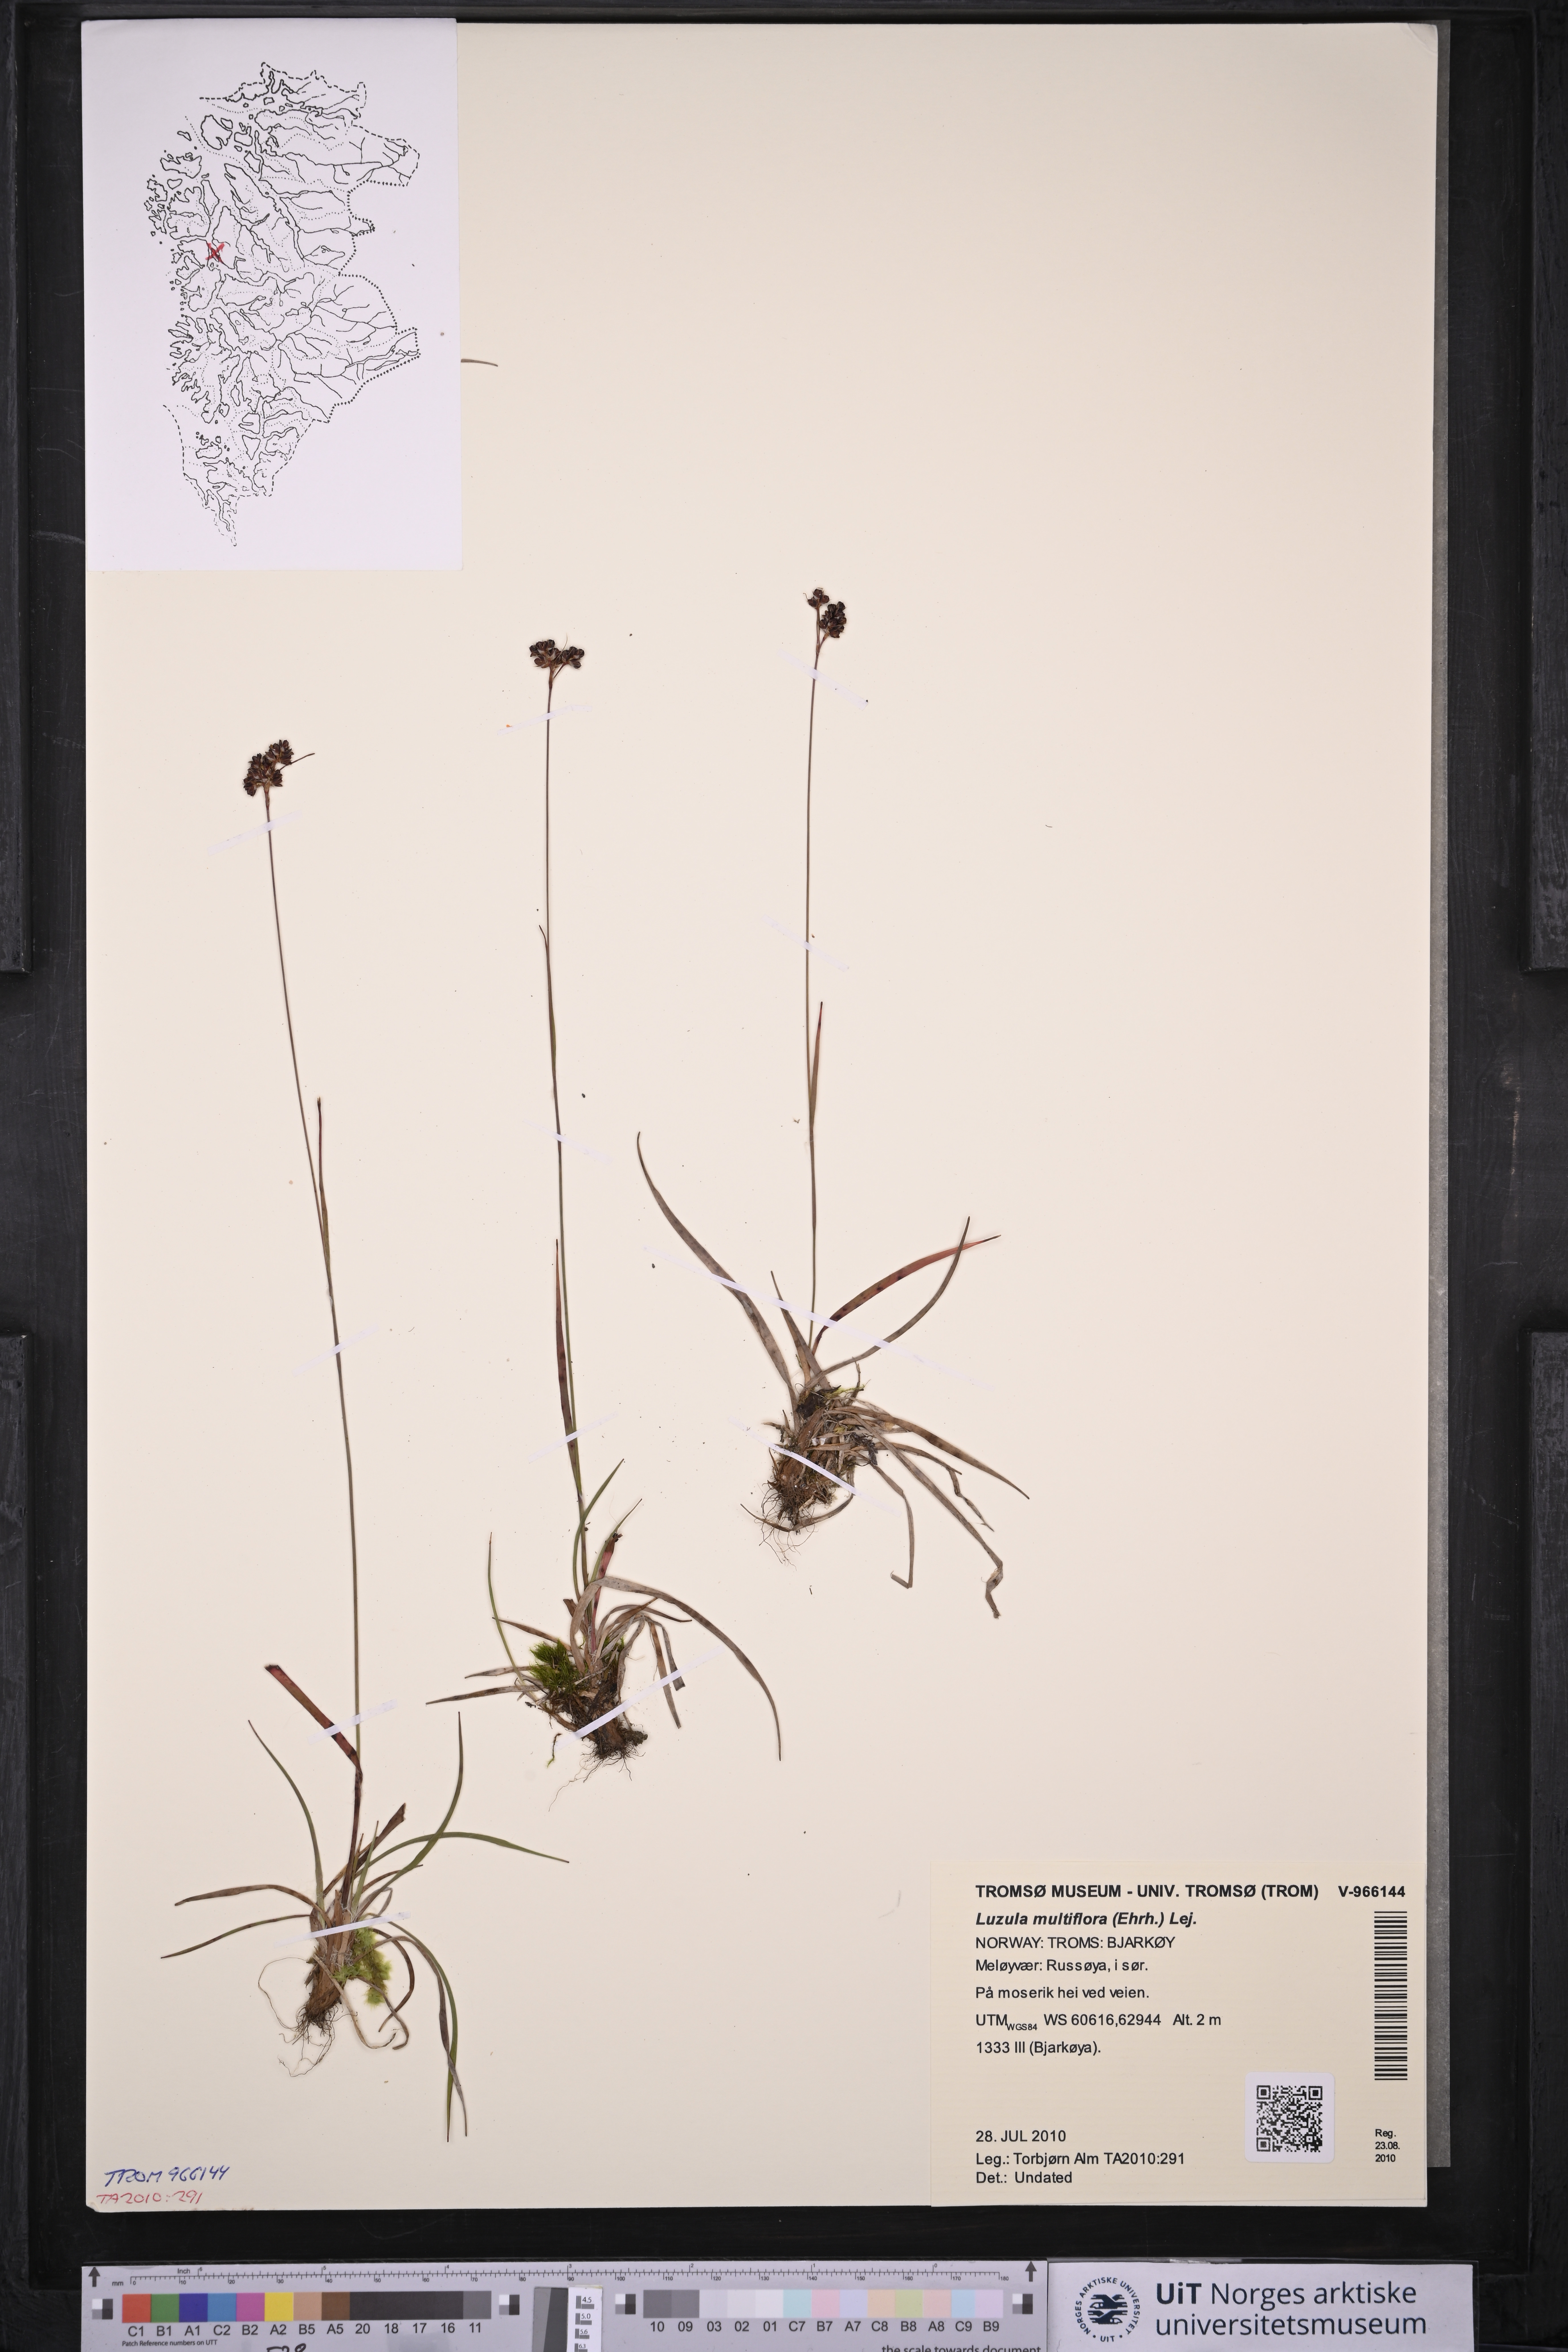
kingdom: Plantae
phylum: Tracheophyta
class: Liliopsida
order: Poales
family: Juncaceae
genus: Luzula
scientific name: Luzula multiflora
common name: Heath wood-rush
